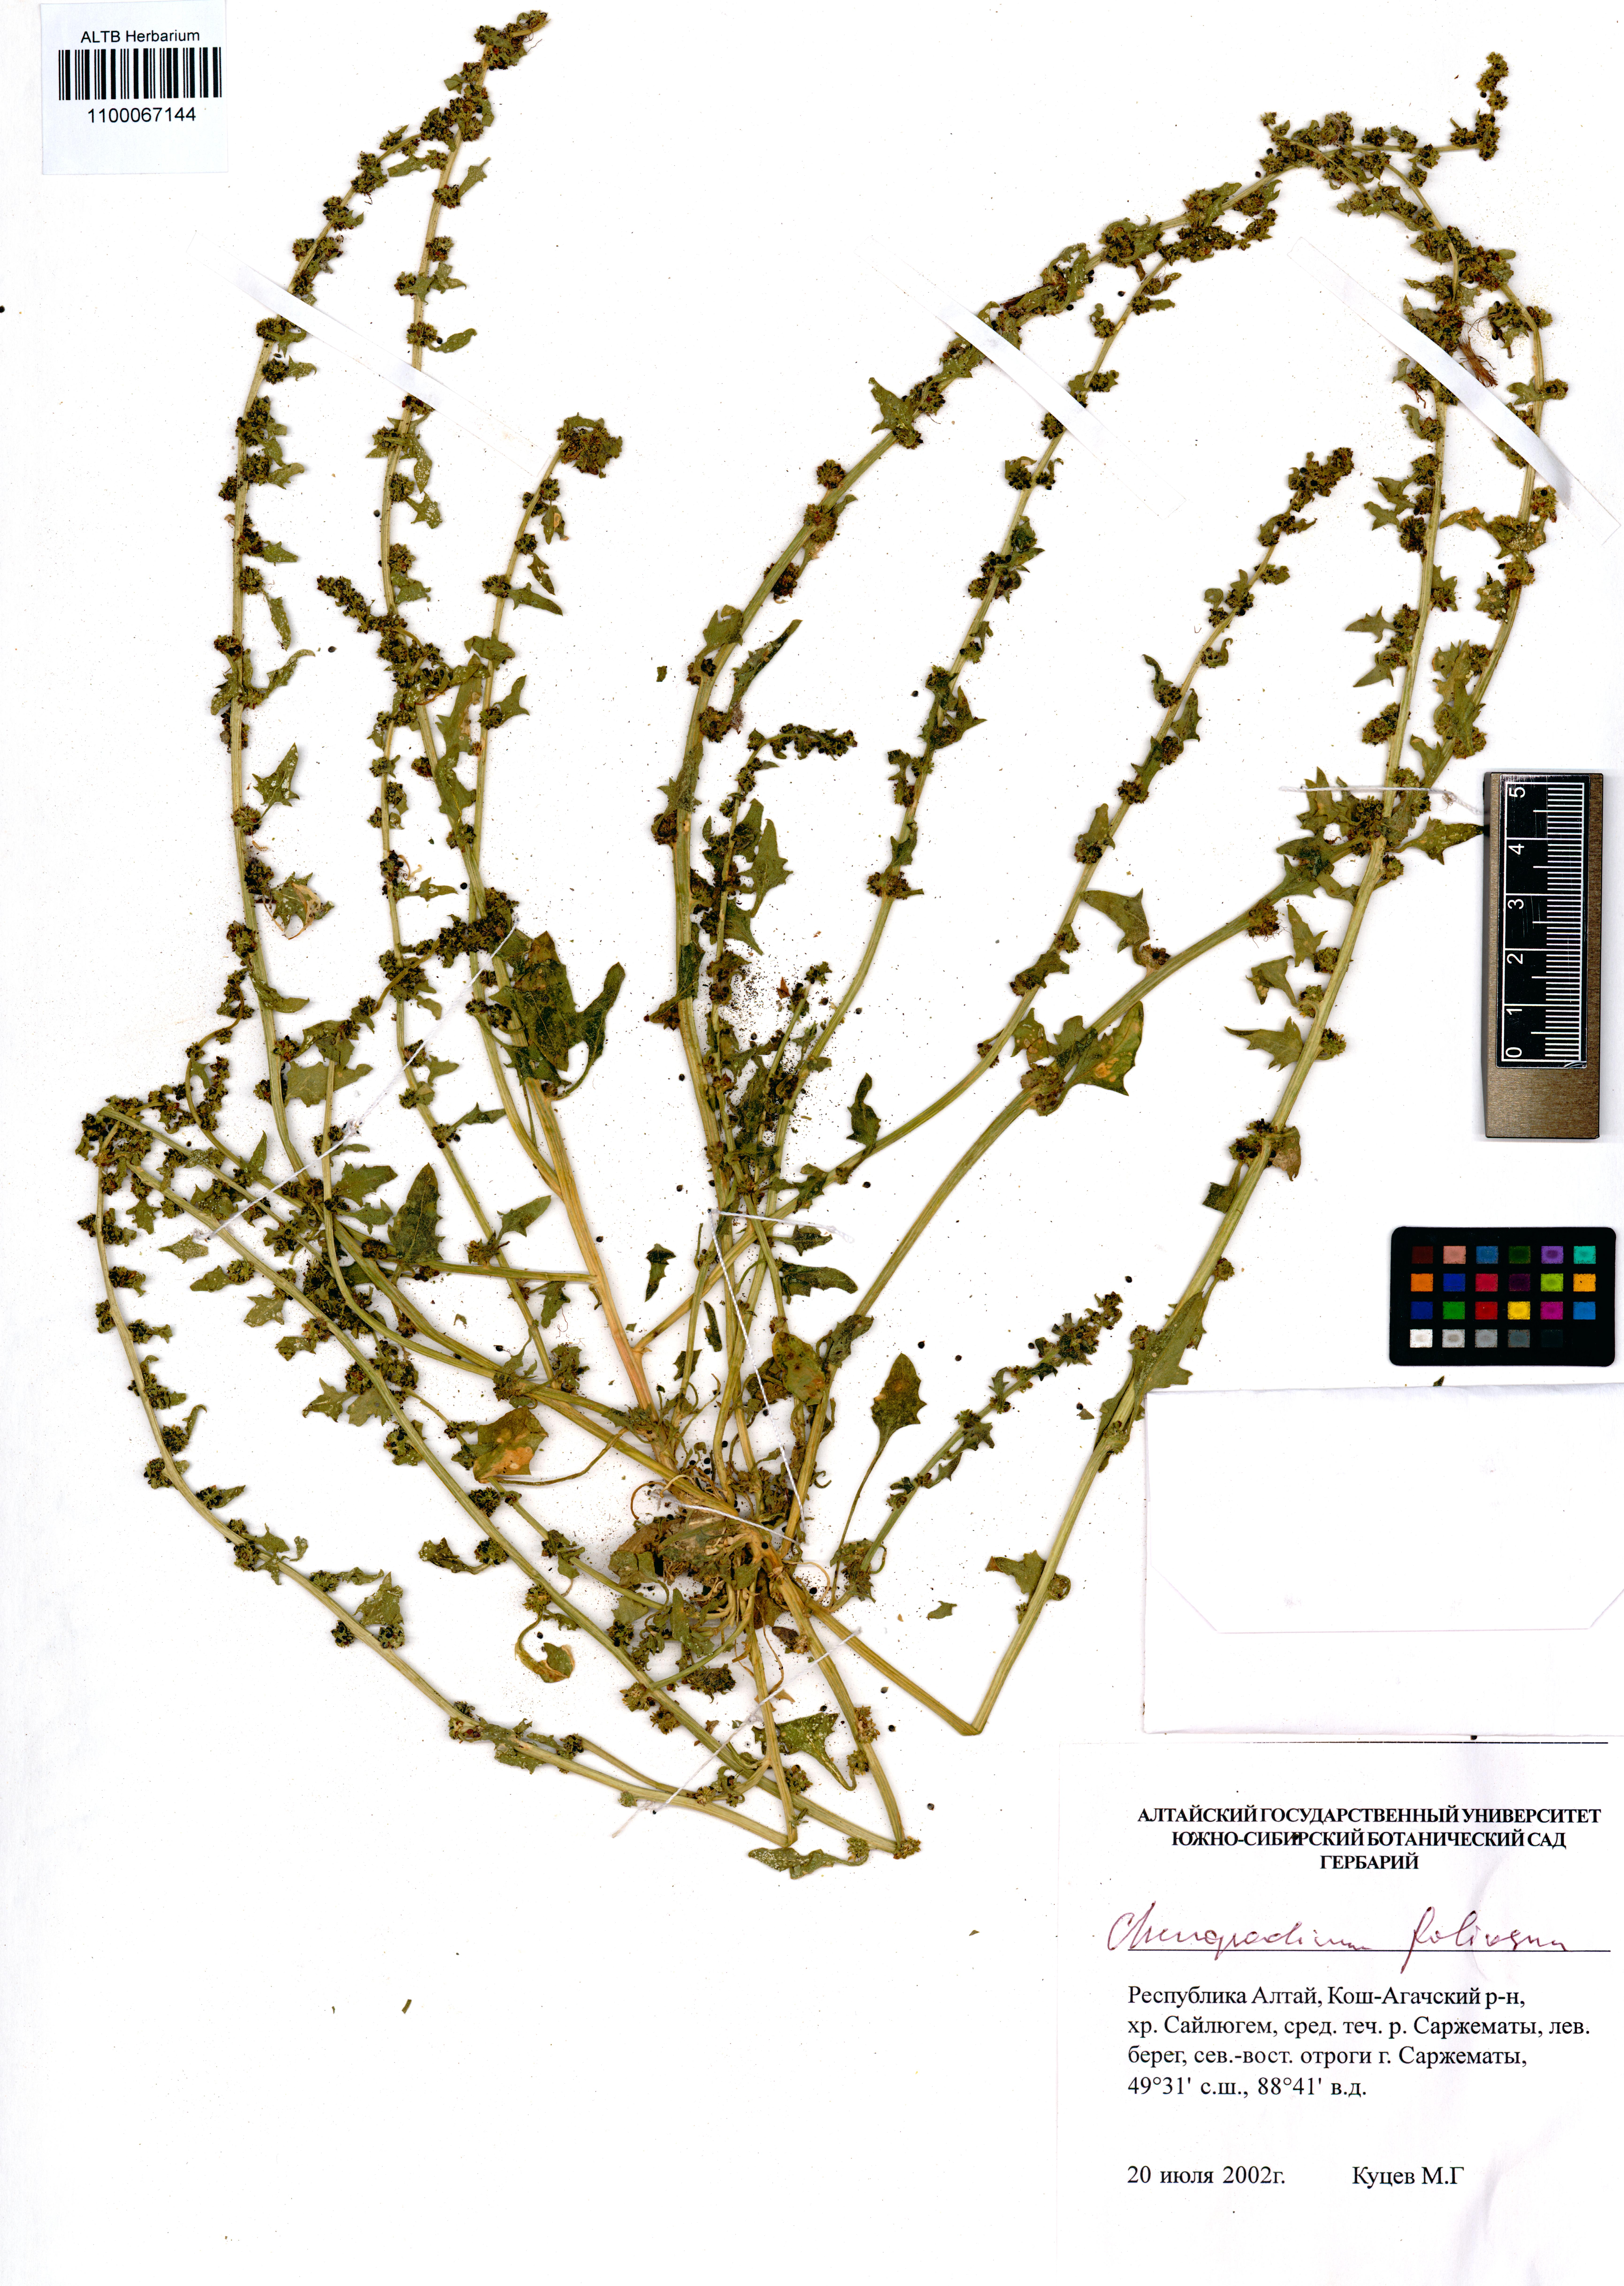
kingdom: Plantae
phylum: Tracheophyta
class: Magnoliopsida
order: Caryophyllales
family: Amaranthaceae
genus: Blitum
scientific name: Blitum virgatum
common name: Strawberry goosefoot
